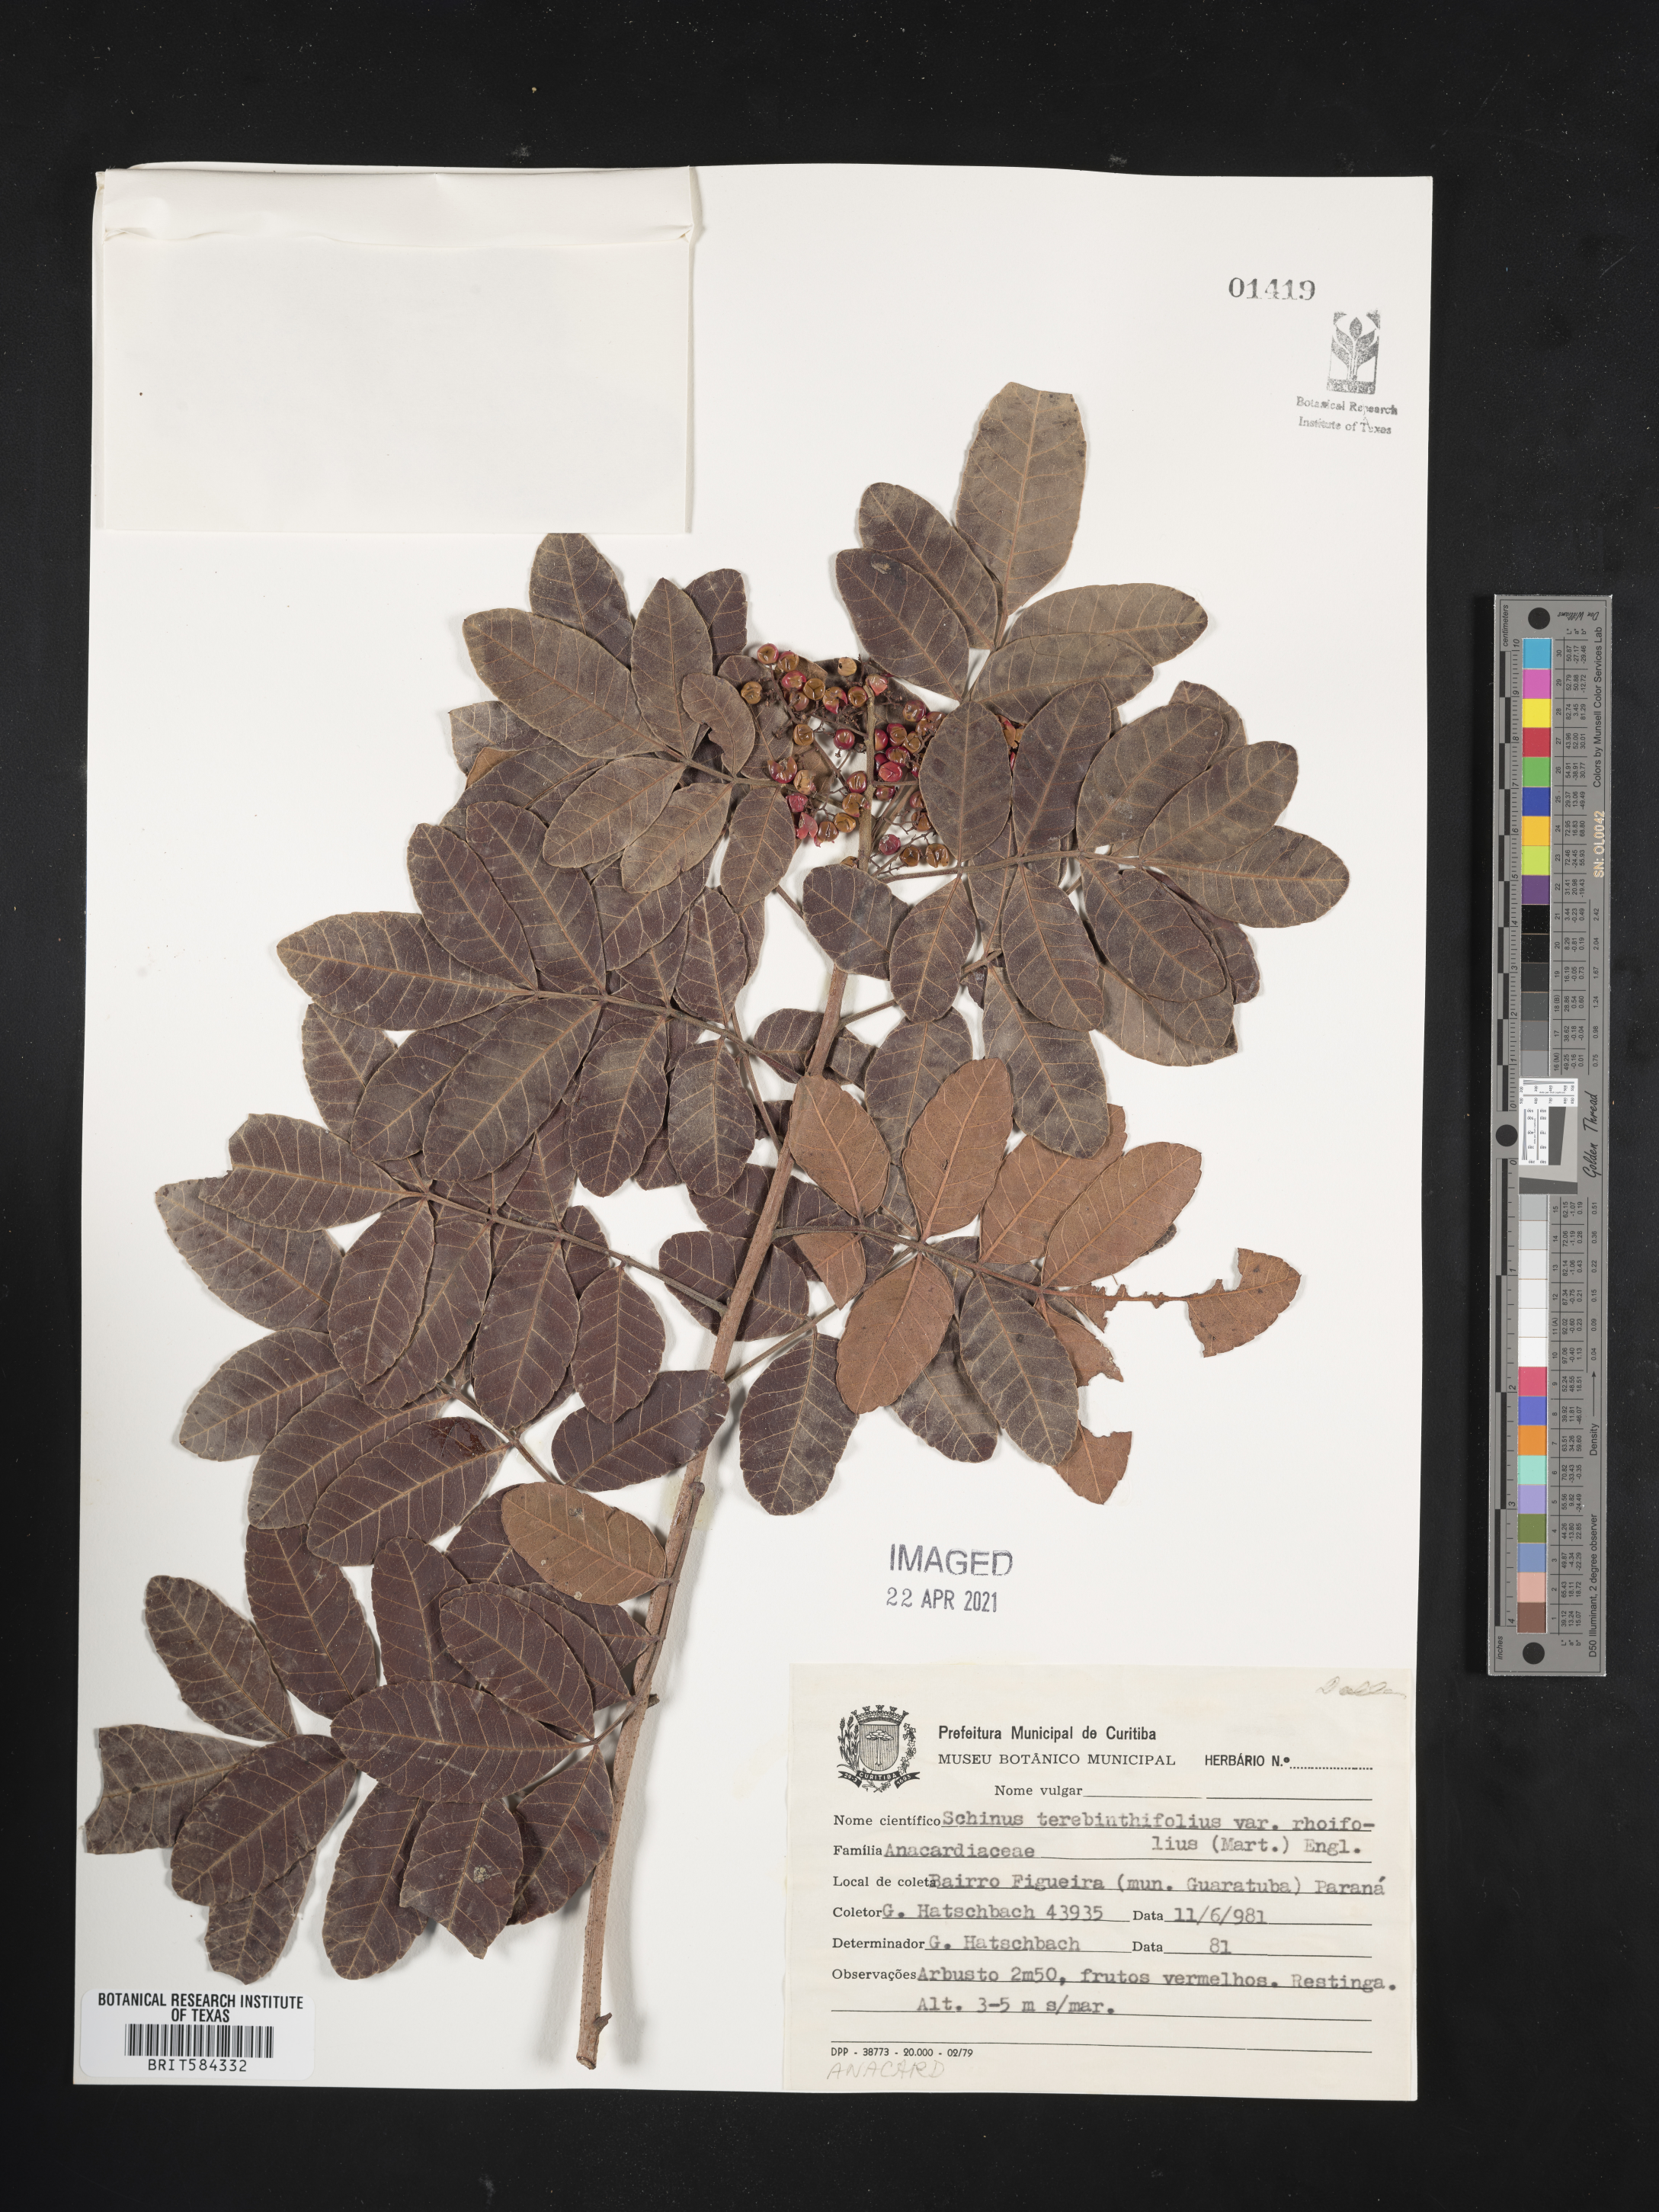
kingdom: Plantae
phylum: Tracheophyta
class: Magnoliopsida
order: Sapindales
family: Anacardiaceae
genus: Schinus
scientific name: Schinus terebinthifolia
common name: Brazilian peppertree
